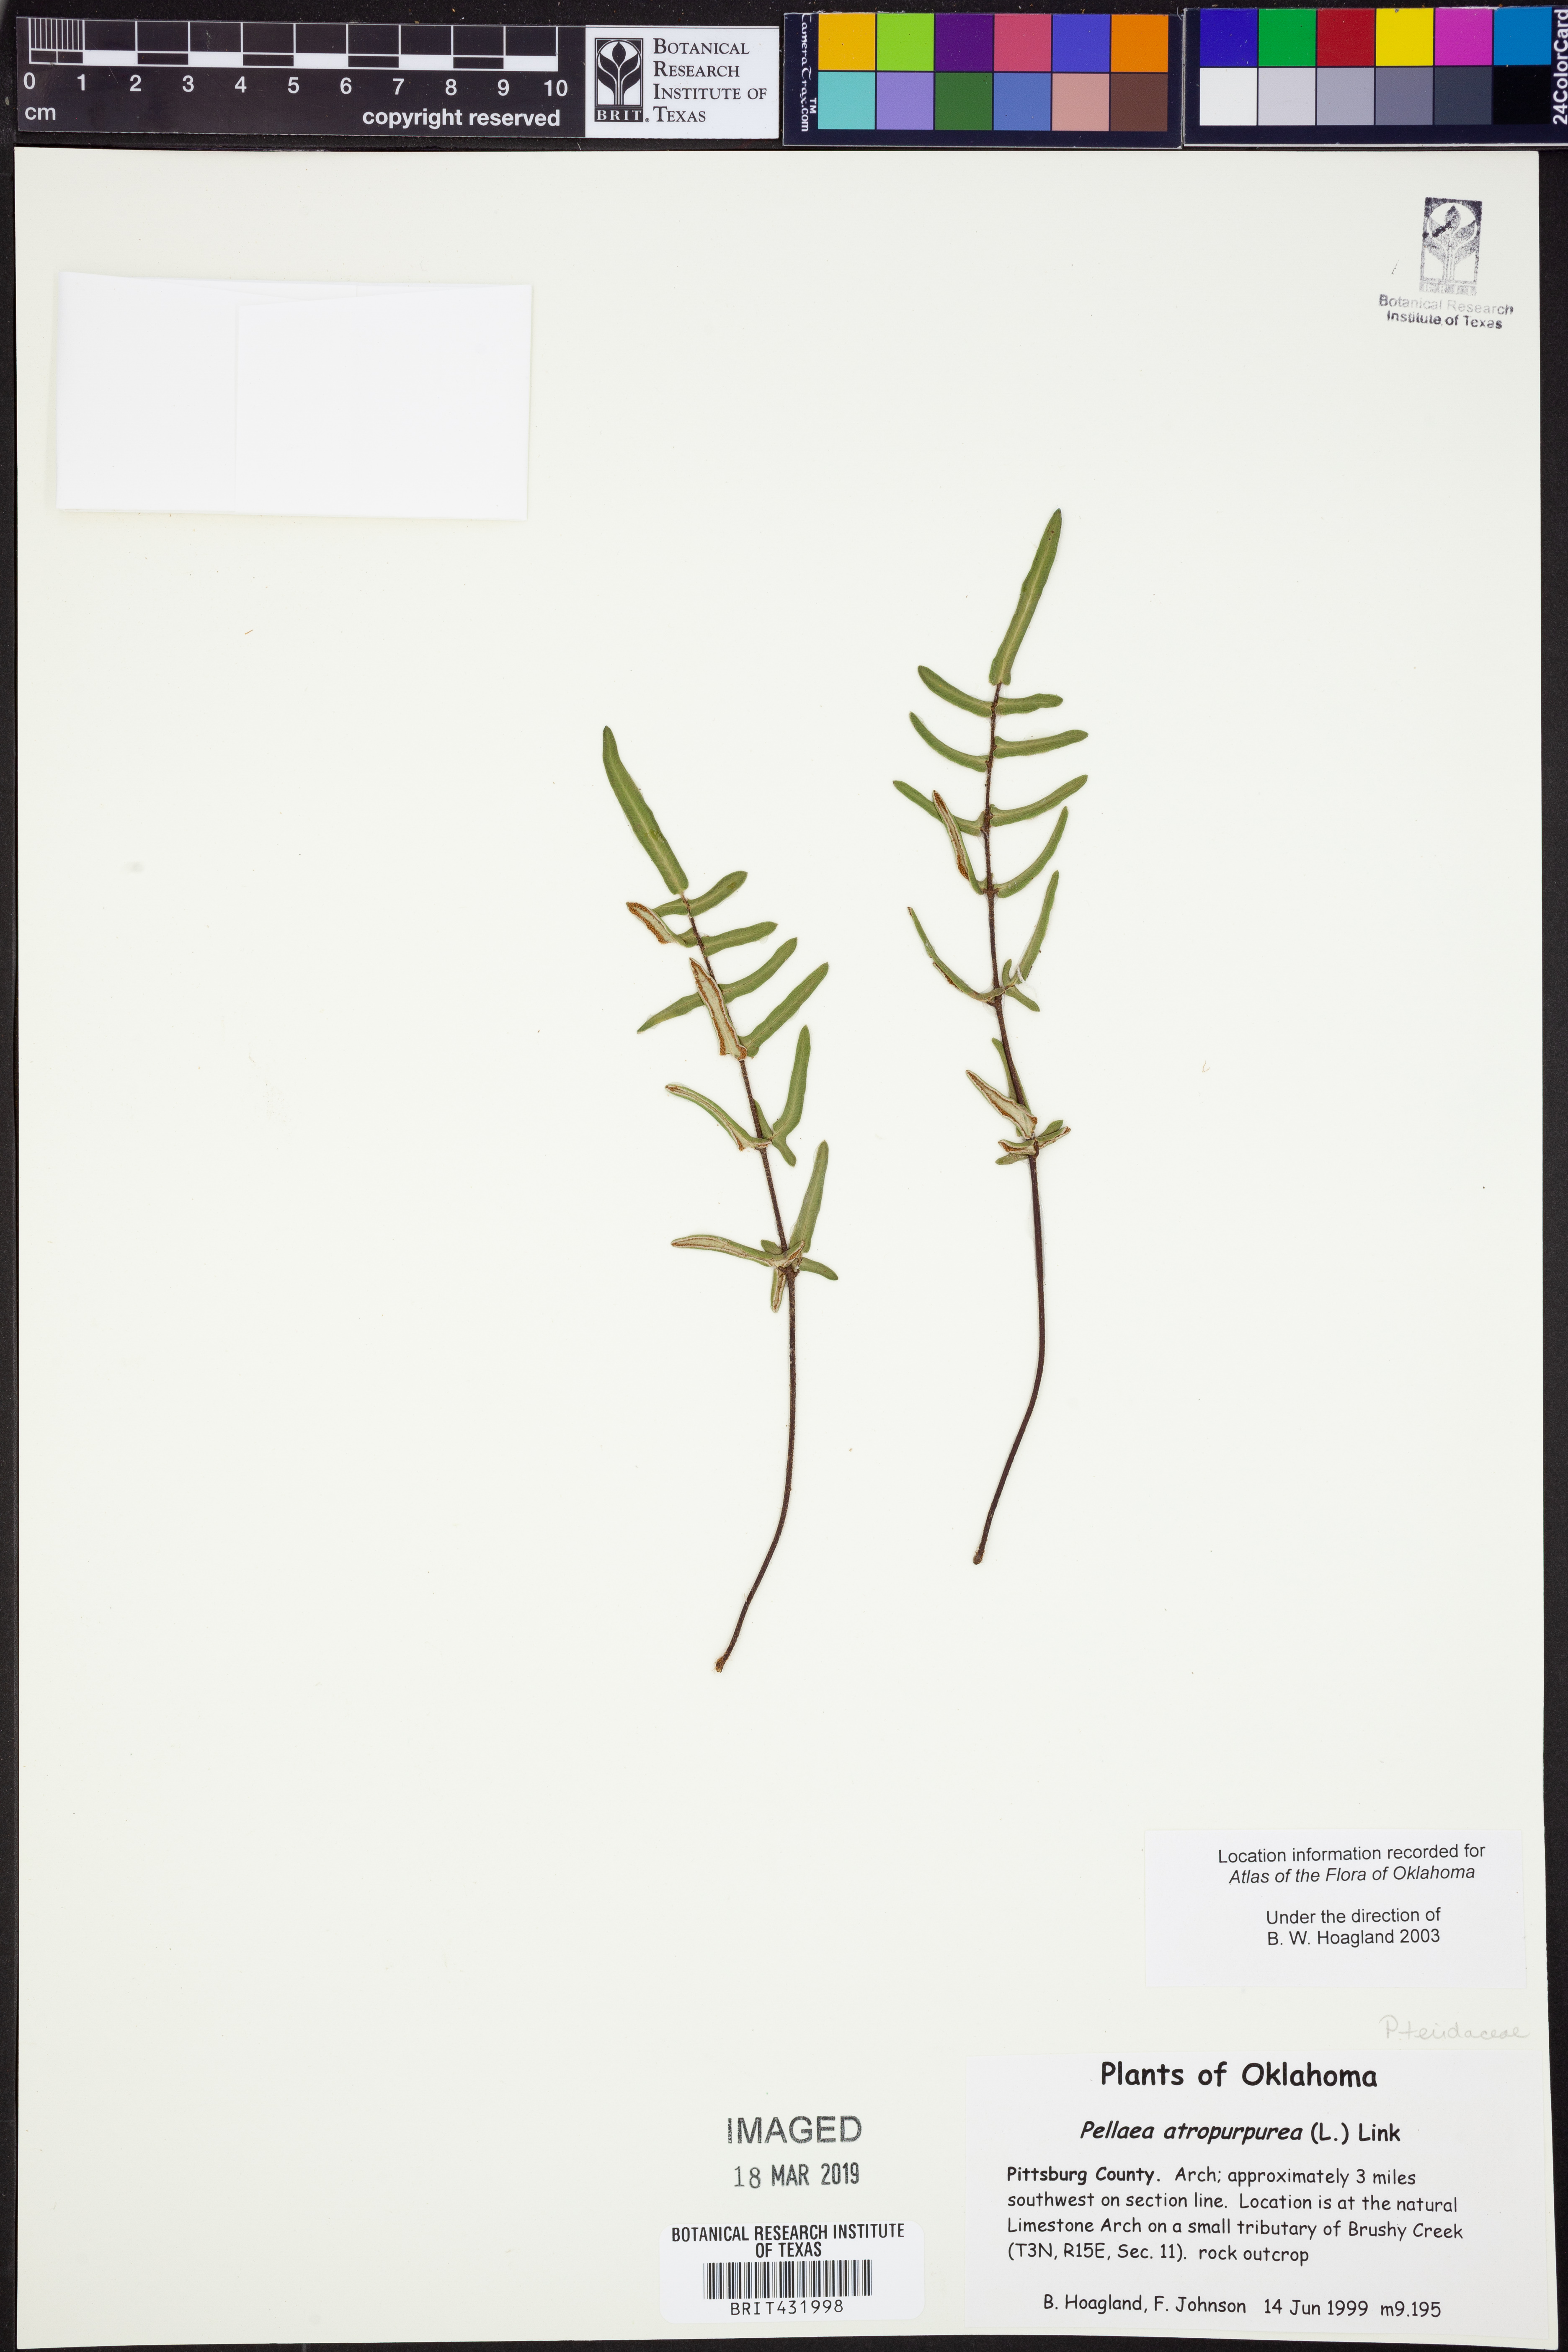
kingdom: Plantae
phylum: Tracheophyta
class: Polypodiopsida
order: Polypodiales
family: Pteridaceae
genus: Pellaea
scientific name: Pellaea atropurpurea
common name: Hairy cliffbrake
